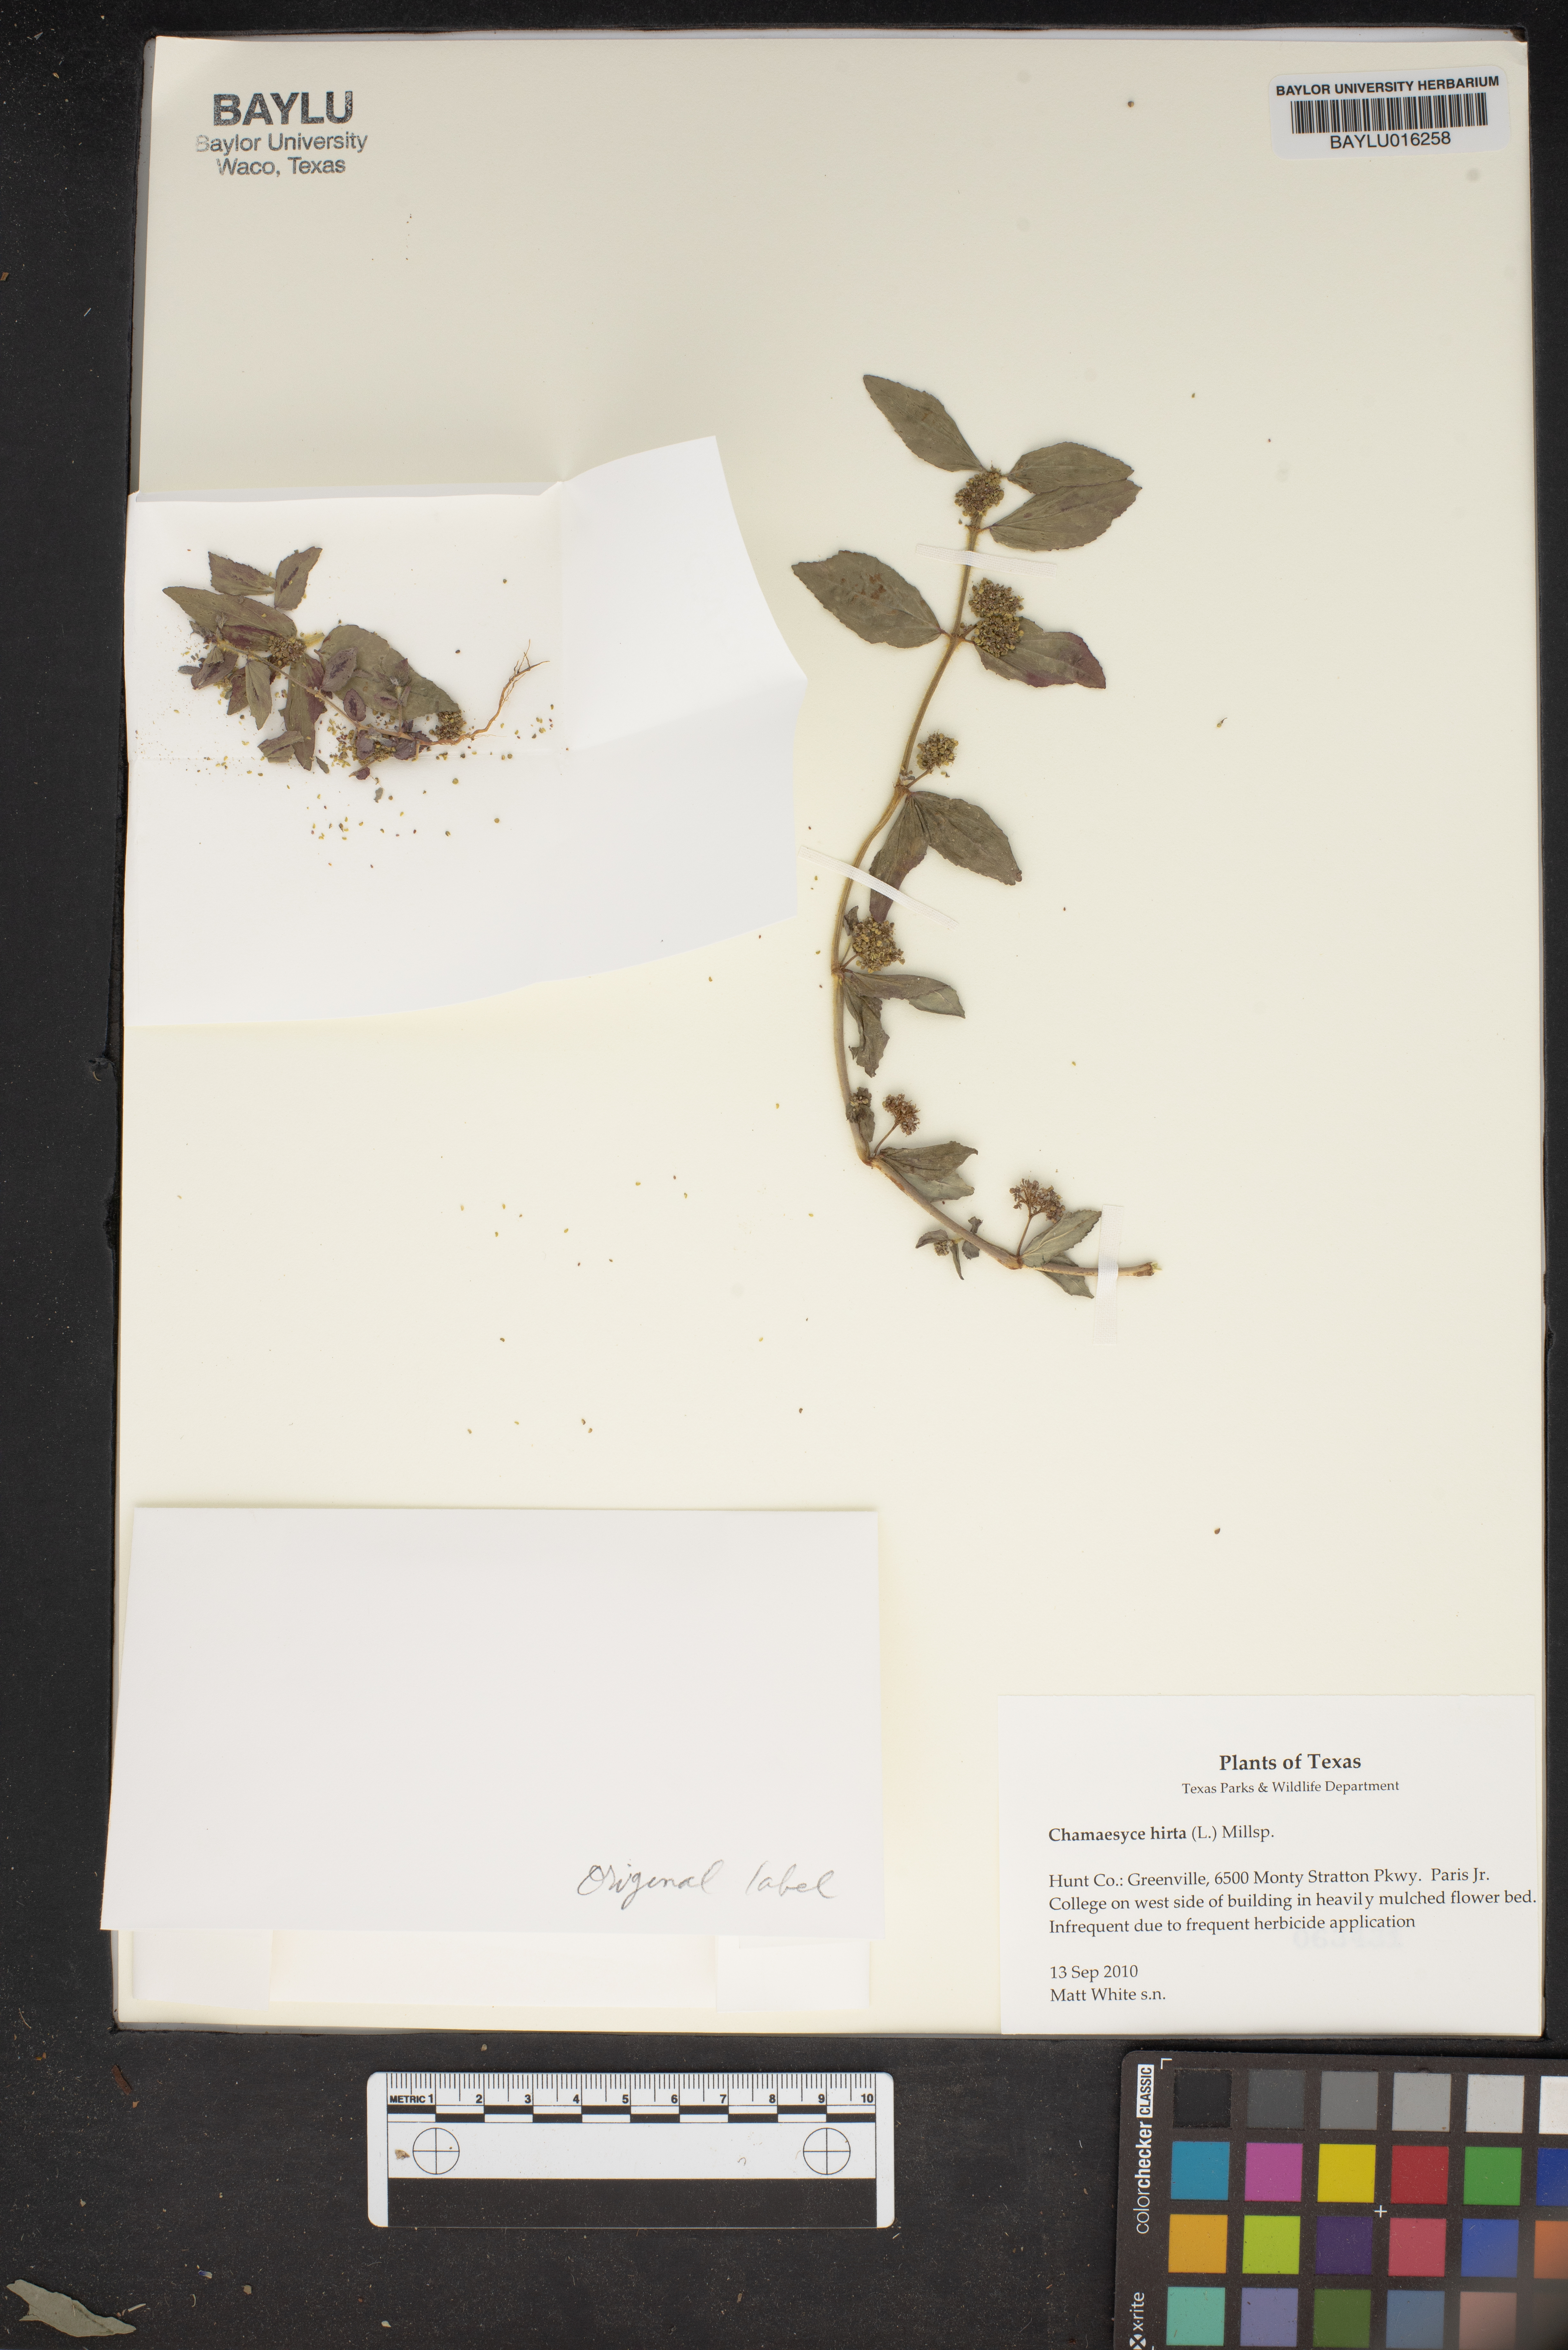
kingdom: Plantae
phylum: Tracheophyta
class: Magnoliopsida
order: Malpighiales
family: Euphorbiaceae
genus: Euphorbia
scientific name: Euphorbia hirta
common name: Pillpod sandmat
